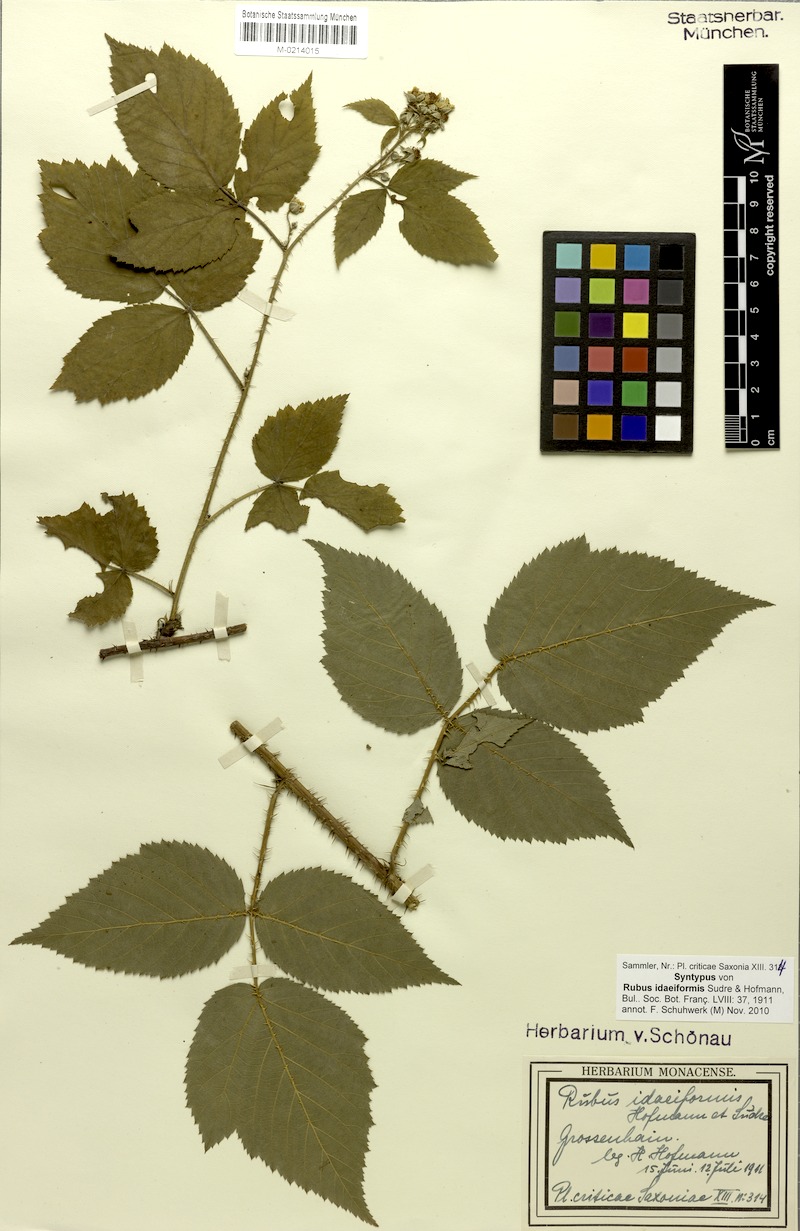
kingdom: Plantae
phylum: Tracheophyta
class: Magnoliopsida
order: Rosales
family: Rosaceae
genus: Rubus
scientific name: Rubus idaeiformis
